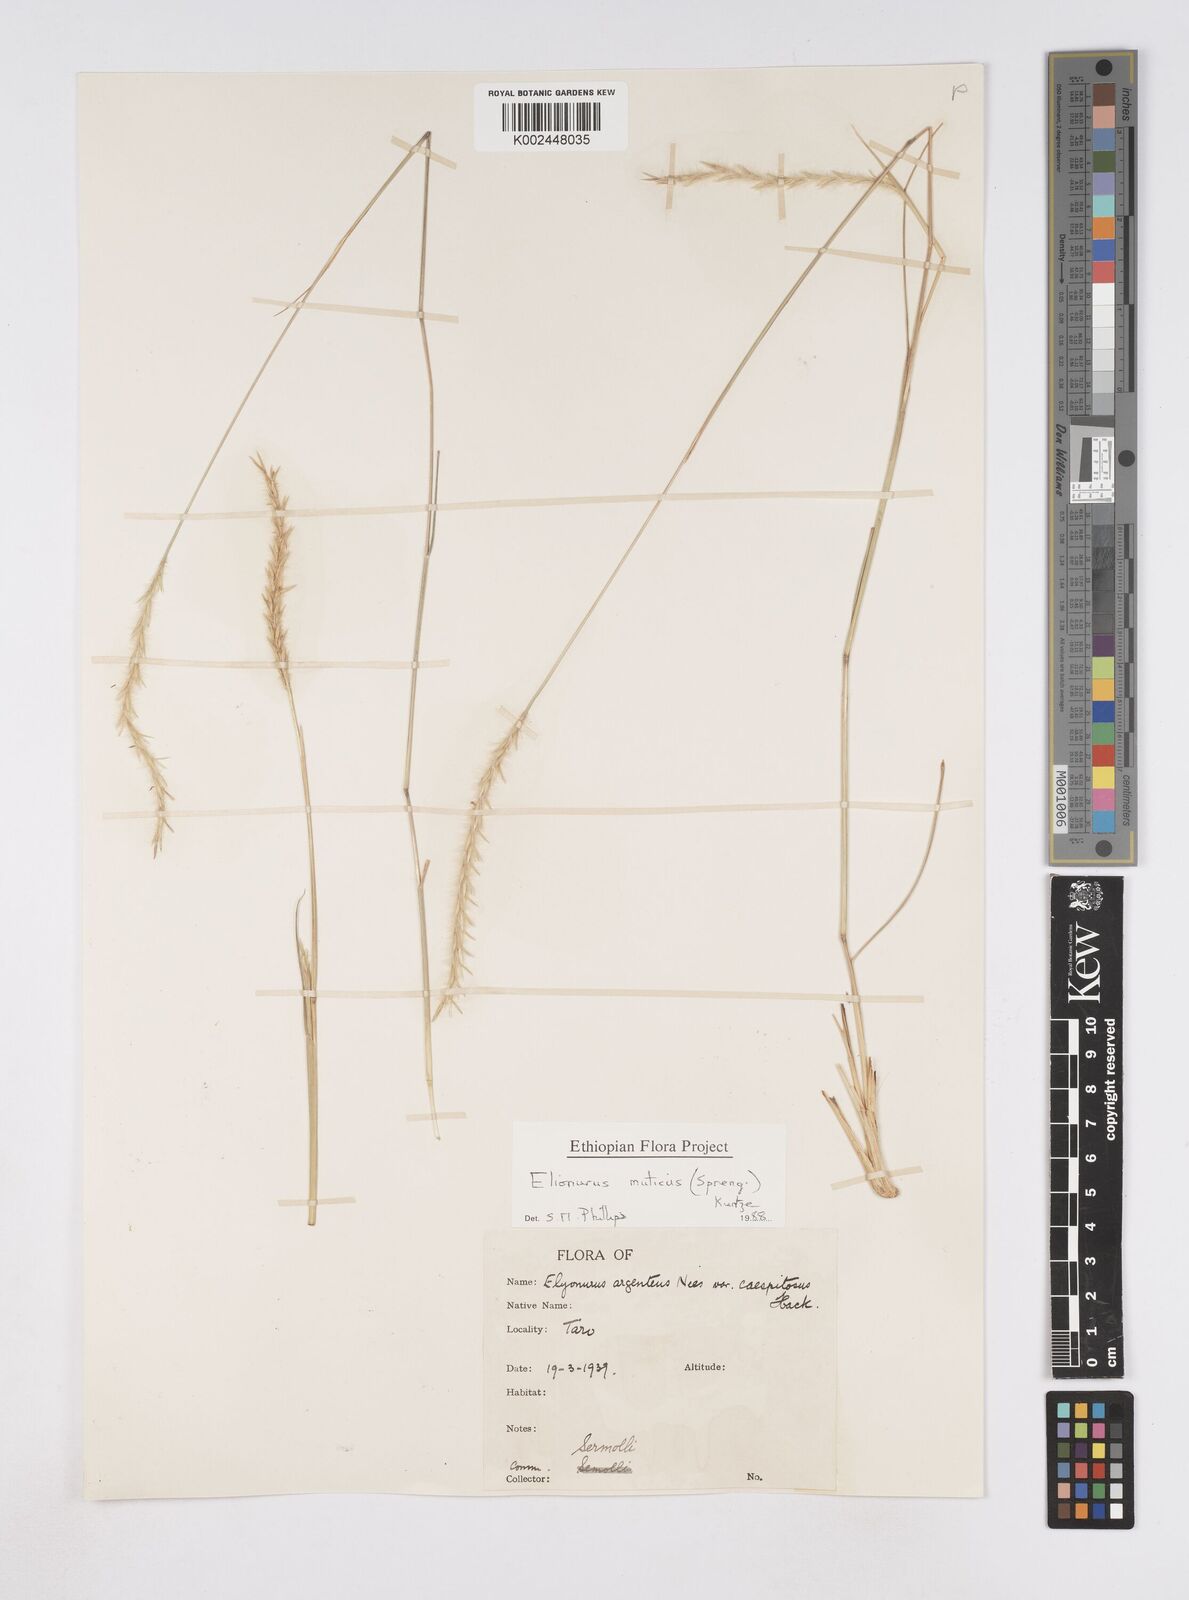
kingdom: Plantae
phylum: Tracheophyta
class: Liliopsida
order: Poales
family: Poaceae
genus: Elionurus
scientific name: Elionurus muticus
